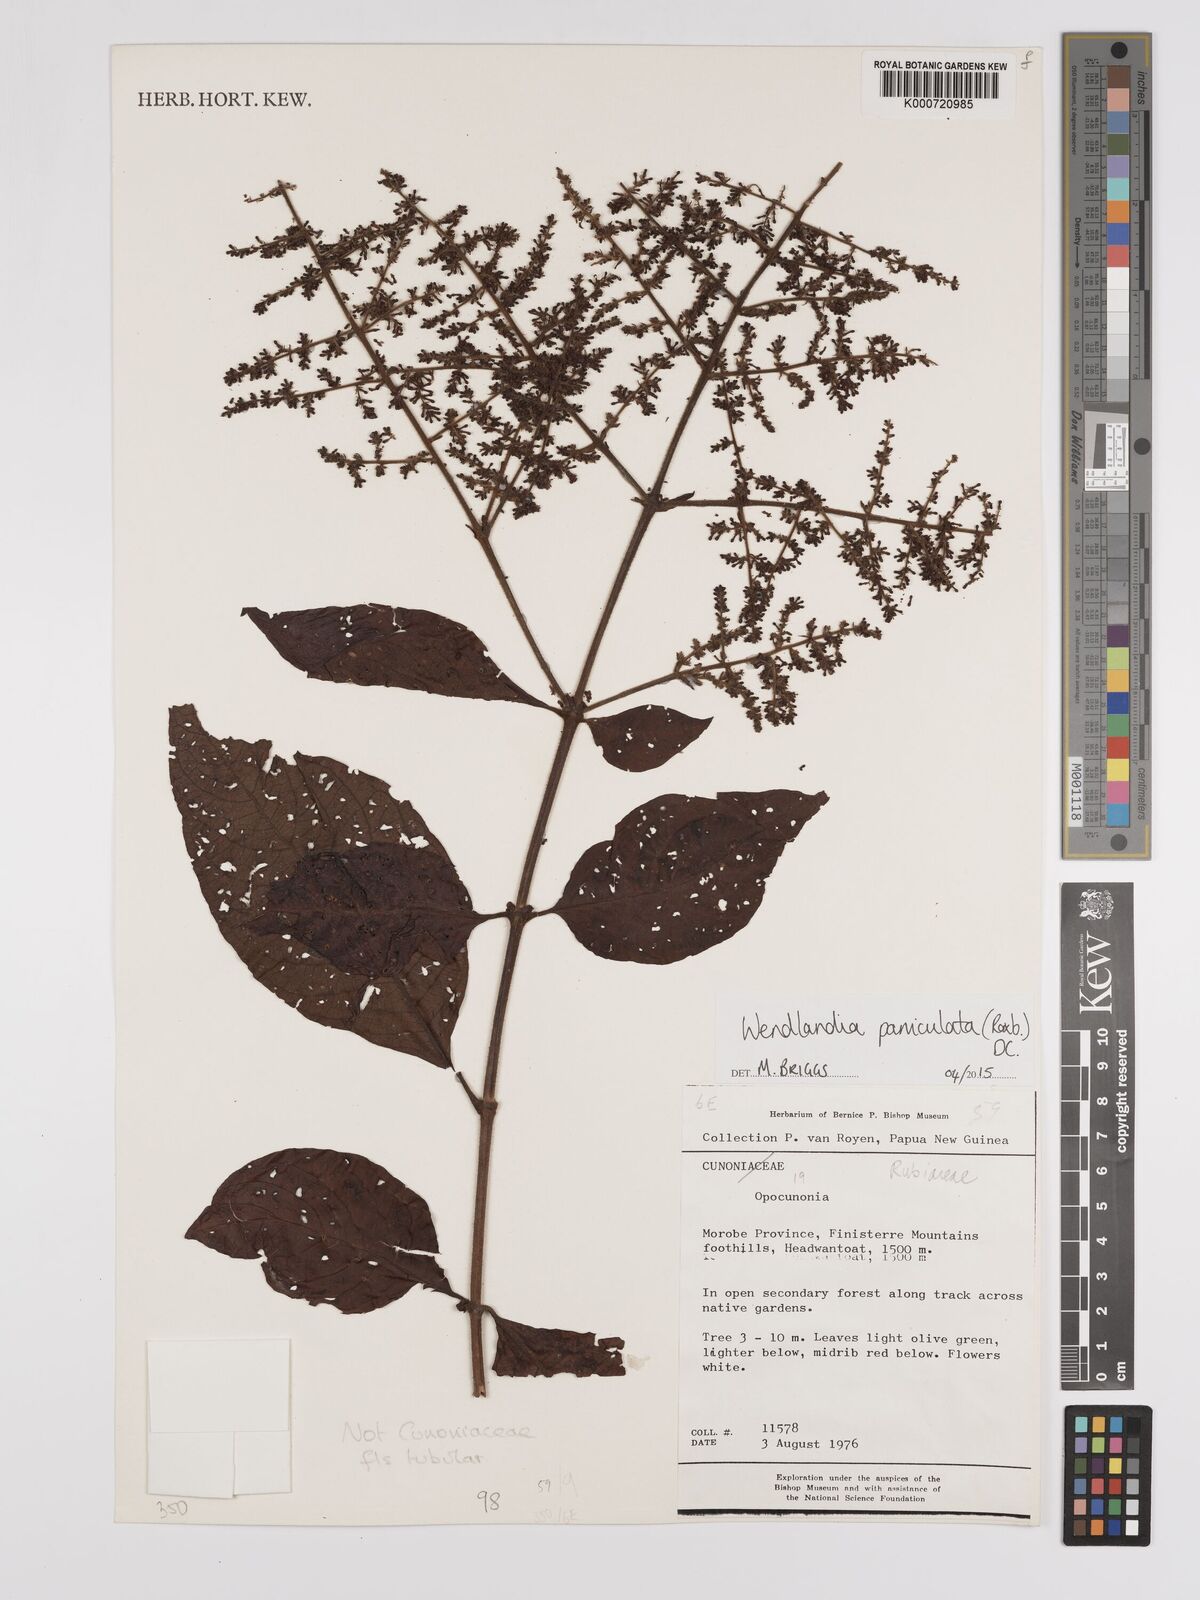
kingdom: Plantae
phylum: Tracheophyta
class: Magnoliopsida
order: Gentianales
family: Rubiaceae
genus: Wendlandia
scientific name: Wendlandia paniculata
